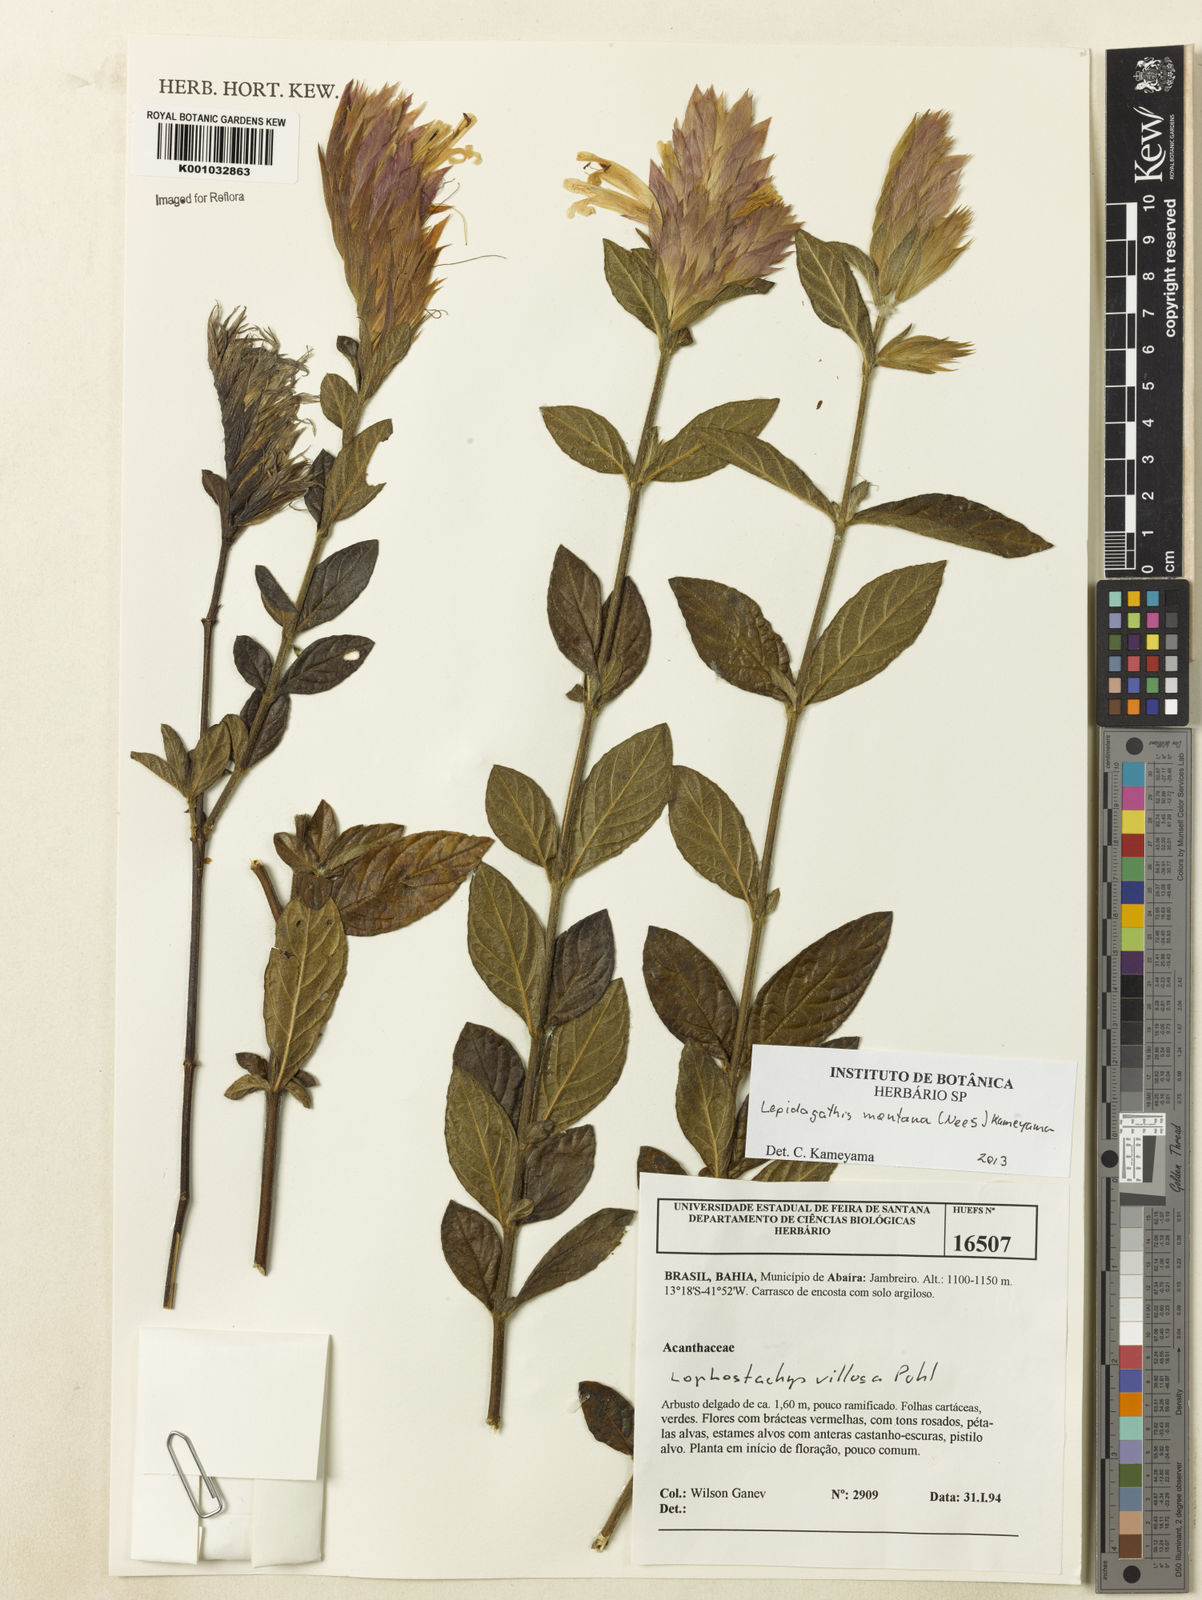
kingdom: Plantae
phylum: Tracheophyta
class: Magnoliopsida
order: Lamiales
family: Acanthaceae
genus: Lepidagathis
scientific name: Lepidagathis montana
